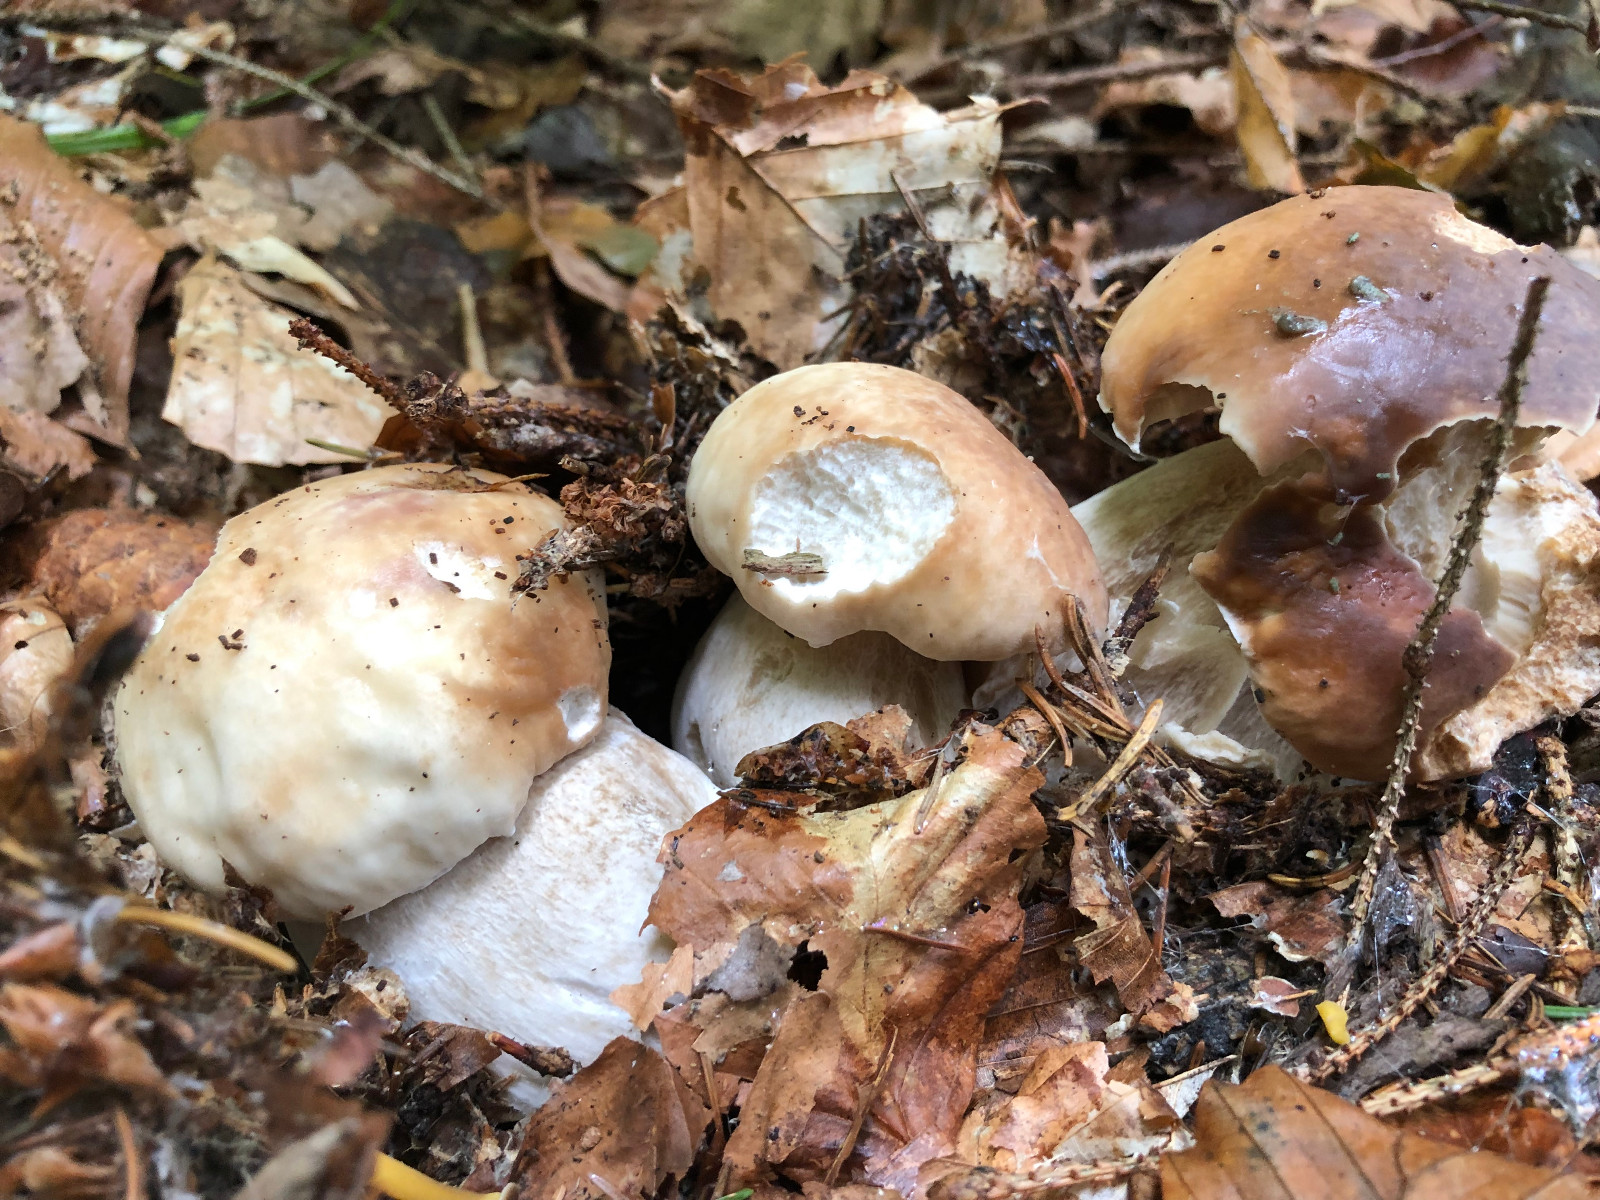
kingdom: Fungi
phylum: Basidiomycota
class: Agaricomycetes
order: Boletales
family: Boletaceae
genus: Boletus
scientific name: Boletus edulis
